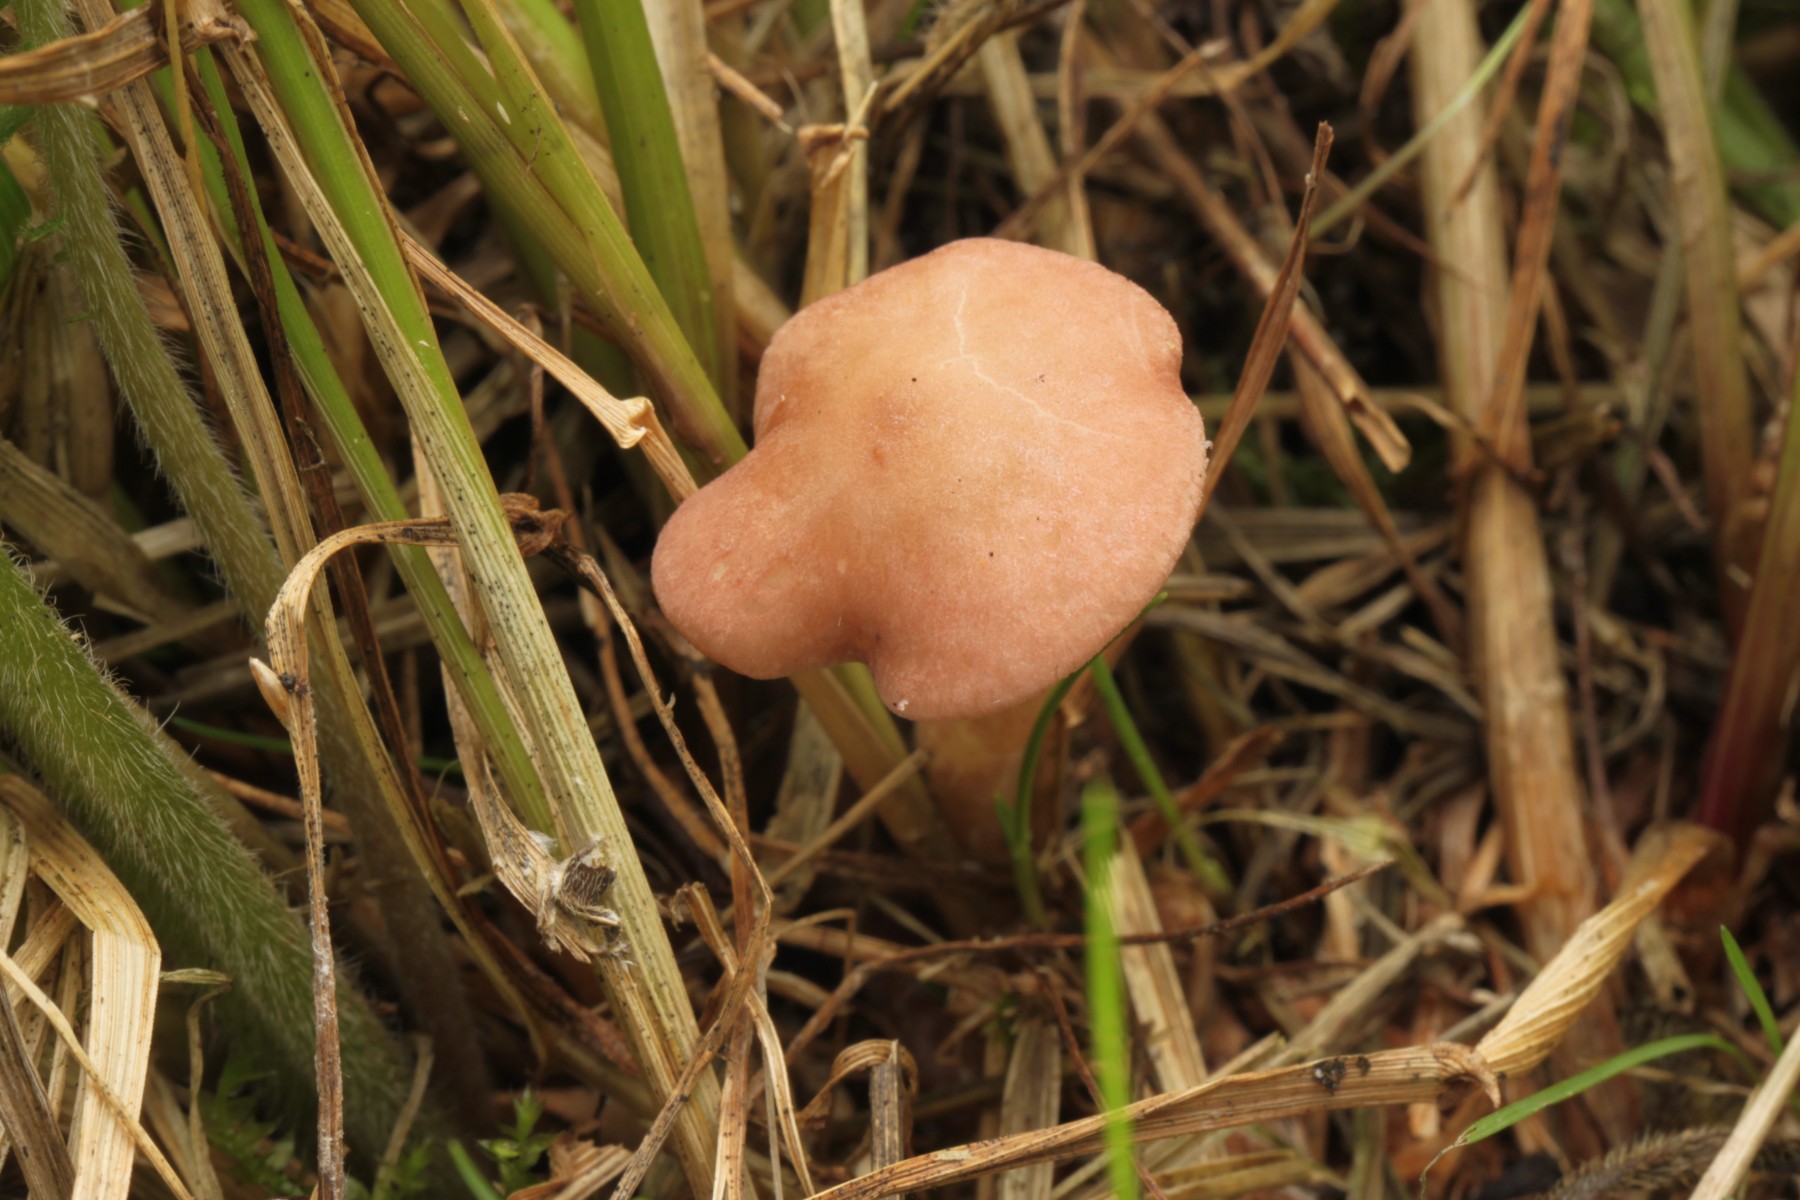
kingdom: Fungi
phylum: Basidiomycota
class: Agaricomycetes
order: Agaricales
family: Lyophyllaceae
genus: Calocybe
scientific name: Calocybe carnea
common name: rosa fagerhat
